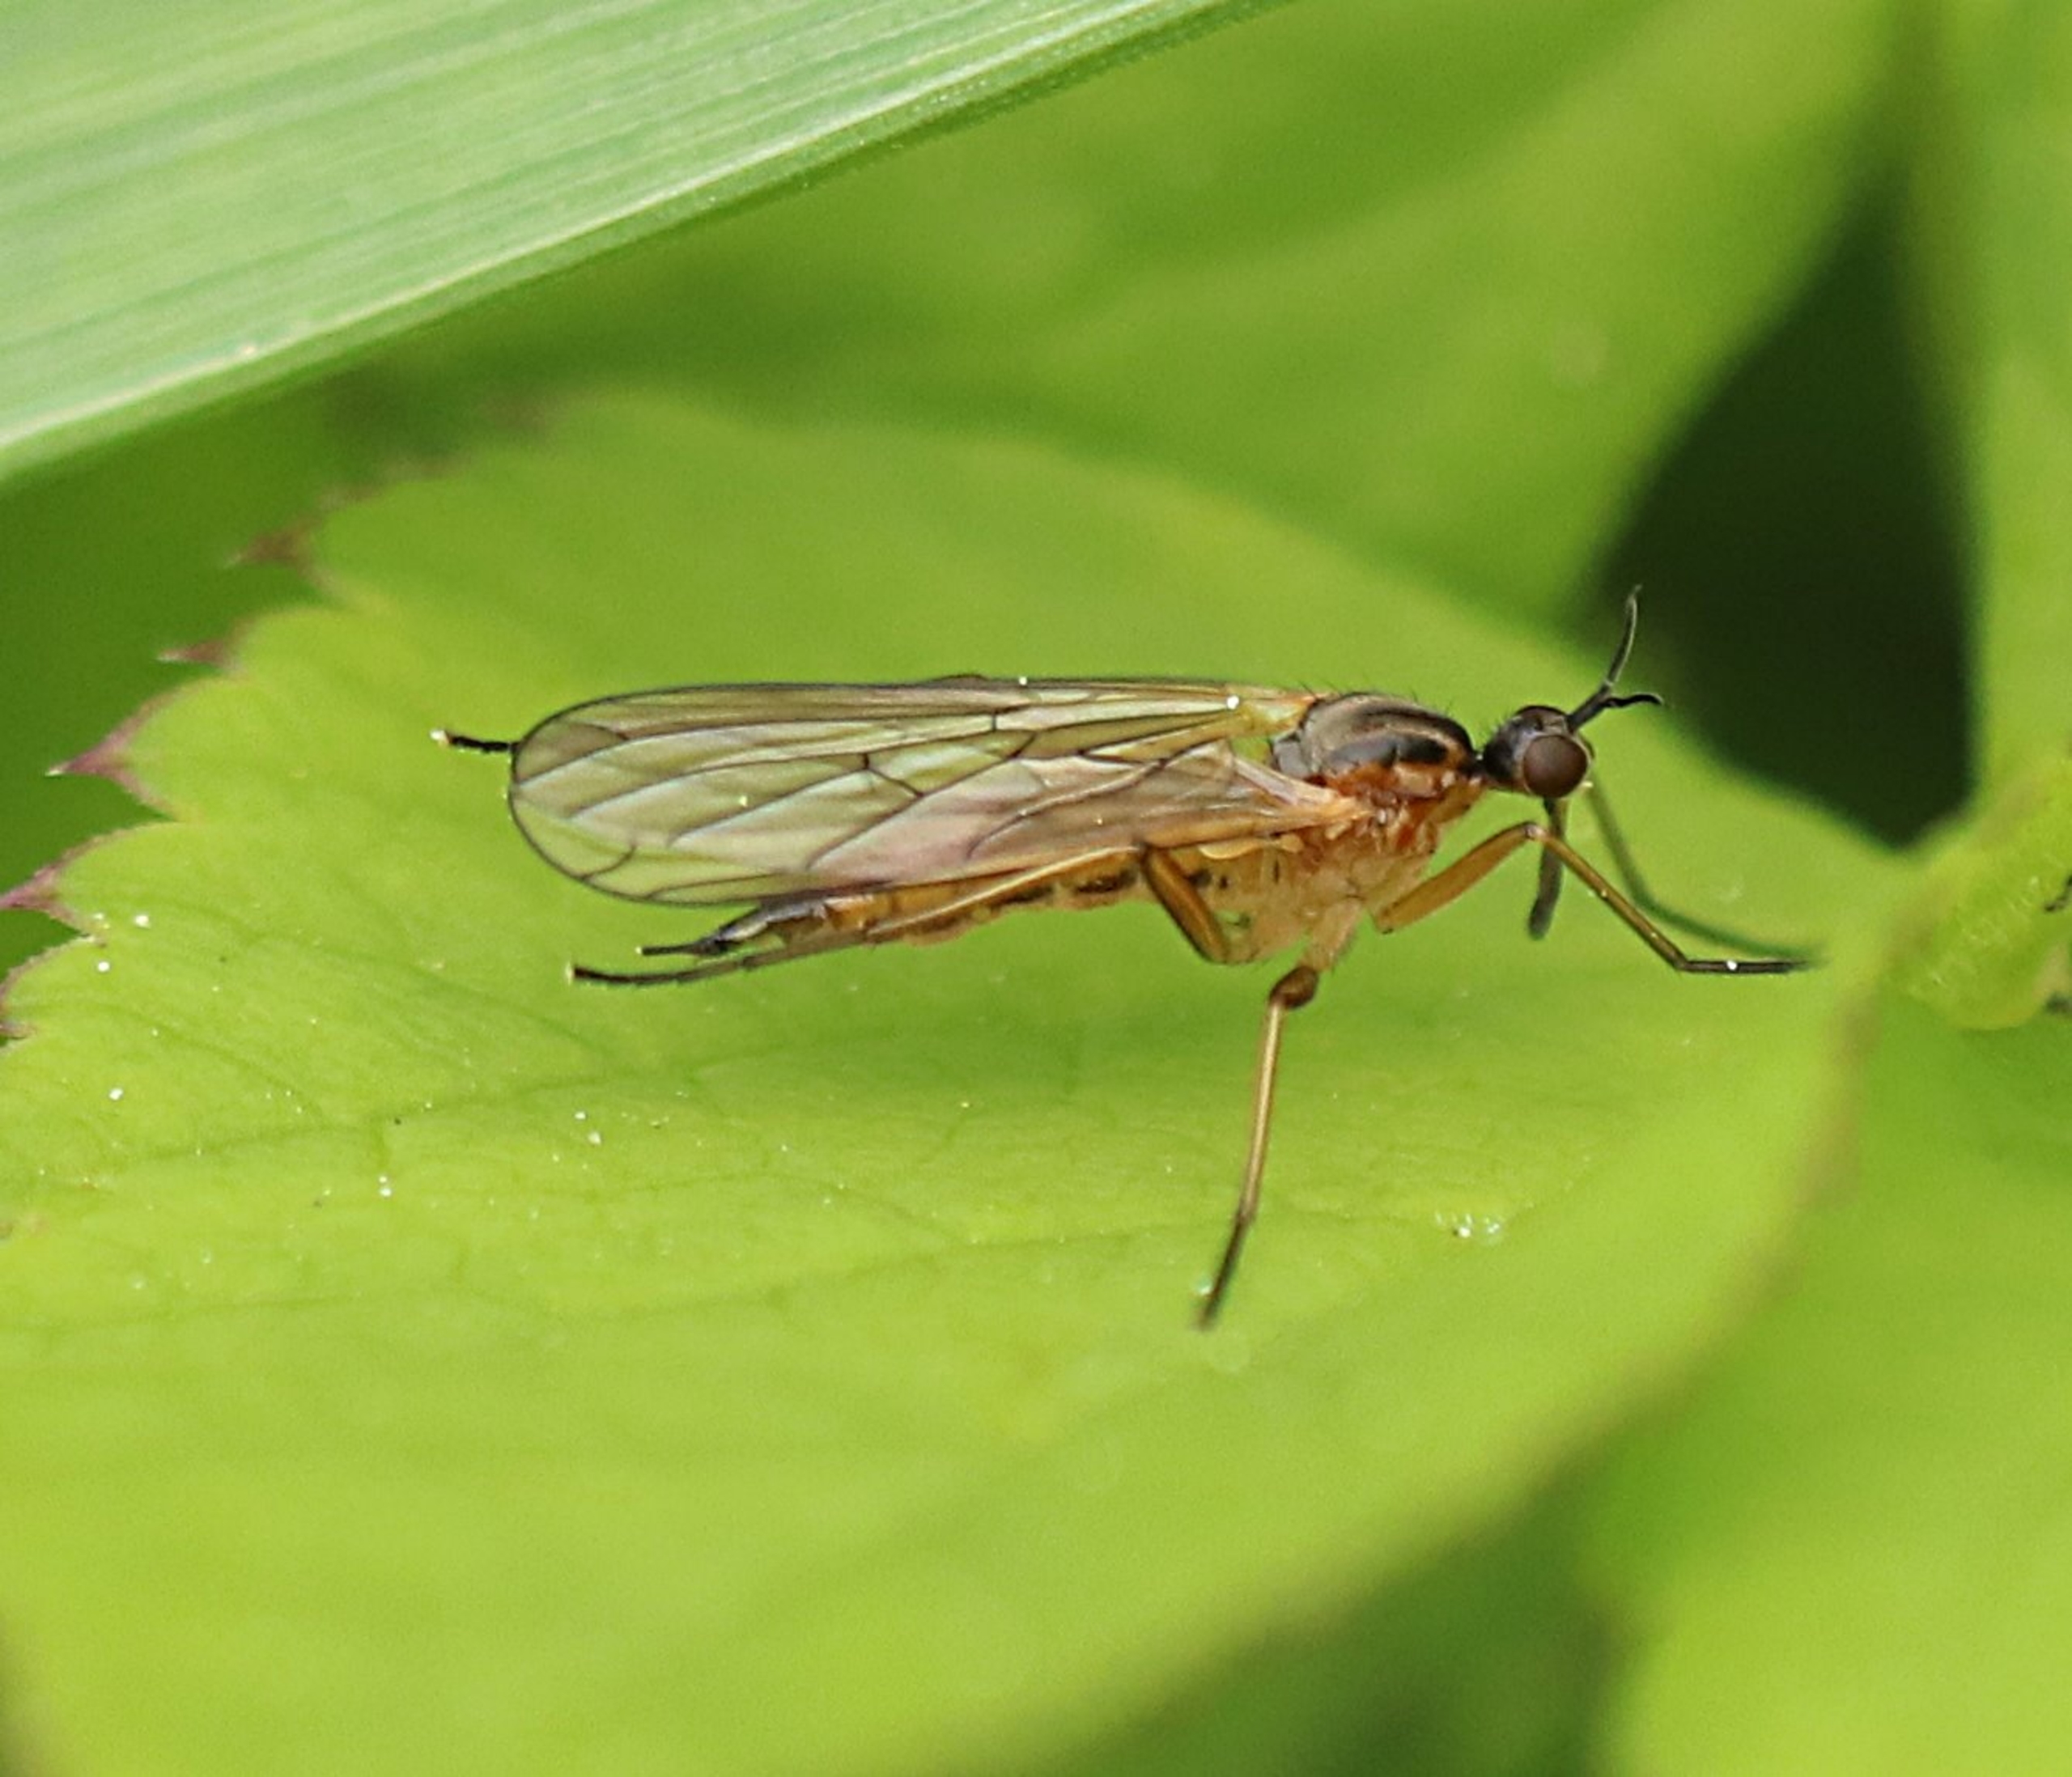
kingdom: Animalia
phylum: Arthropoda
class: Insecta
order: Diptera
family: Empididae
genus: Empis
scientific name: Empis trigramma
